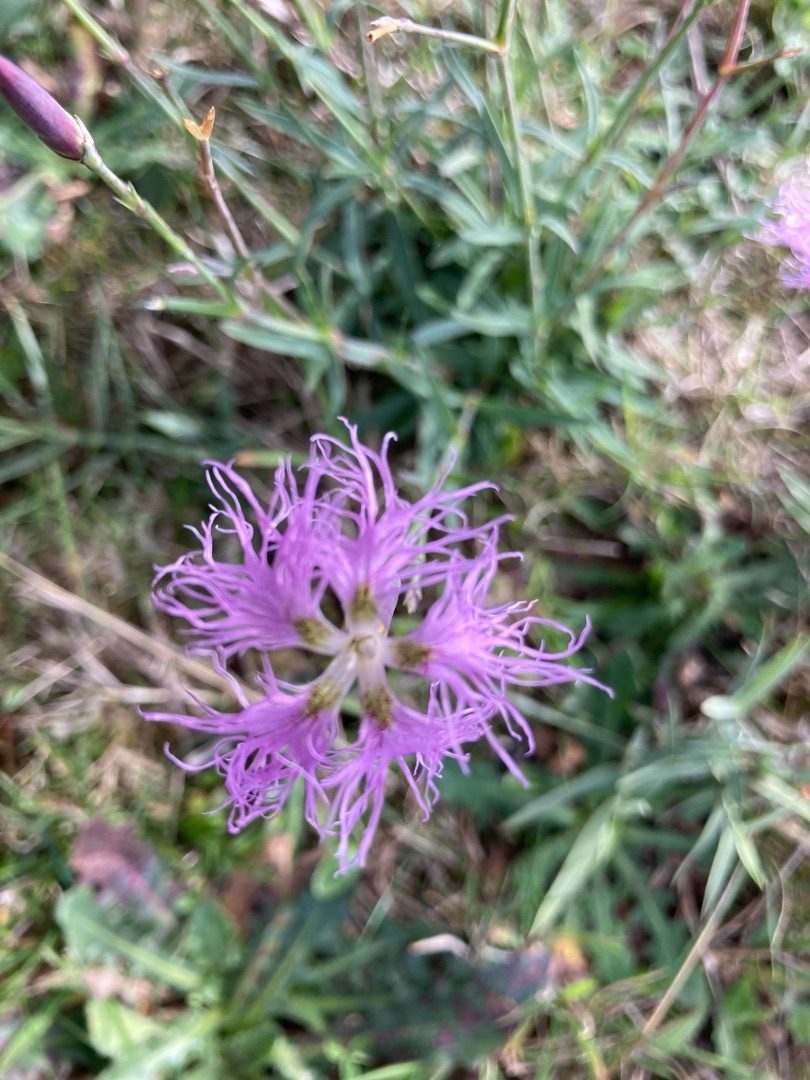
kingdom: Plantae
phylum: Tracheophyta
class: Magnoliopsida
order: Caryophyllales
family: Caryophyllaceae
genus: Dianthus
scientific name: Dianthus superbus
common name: Strand-nellike
